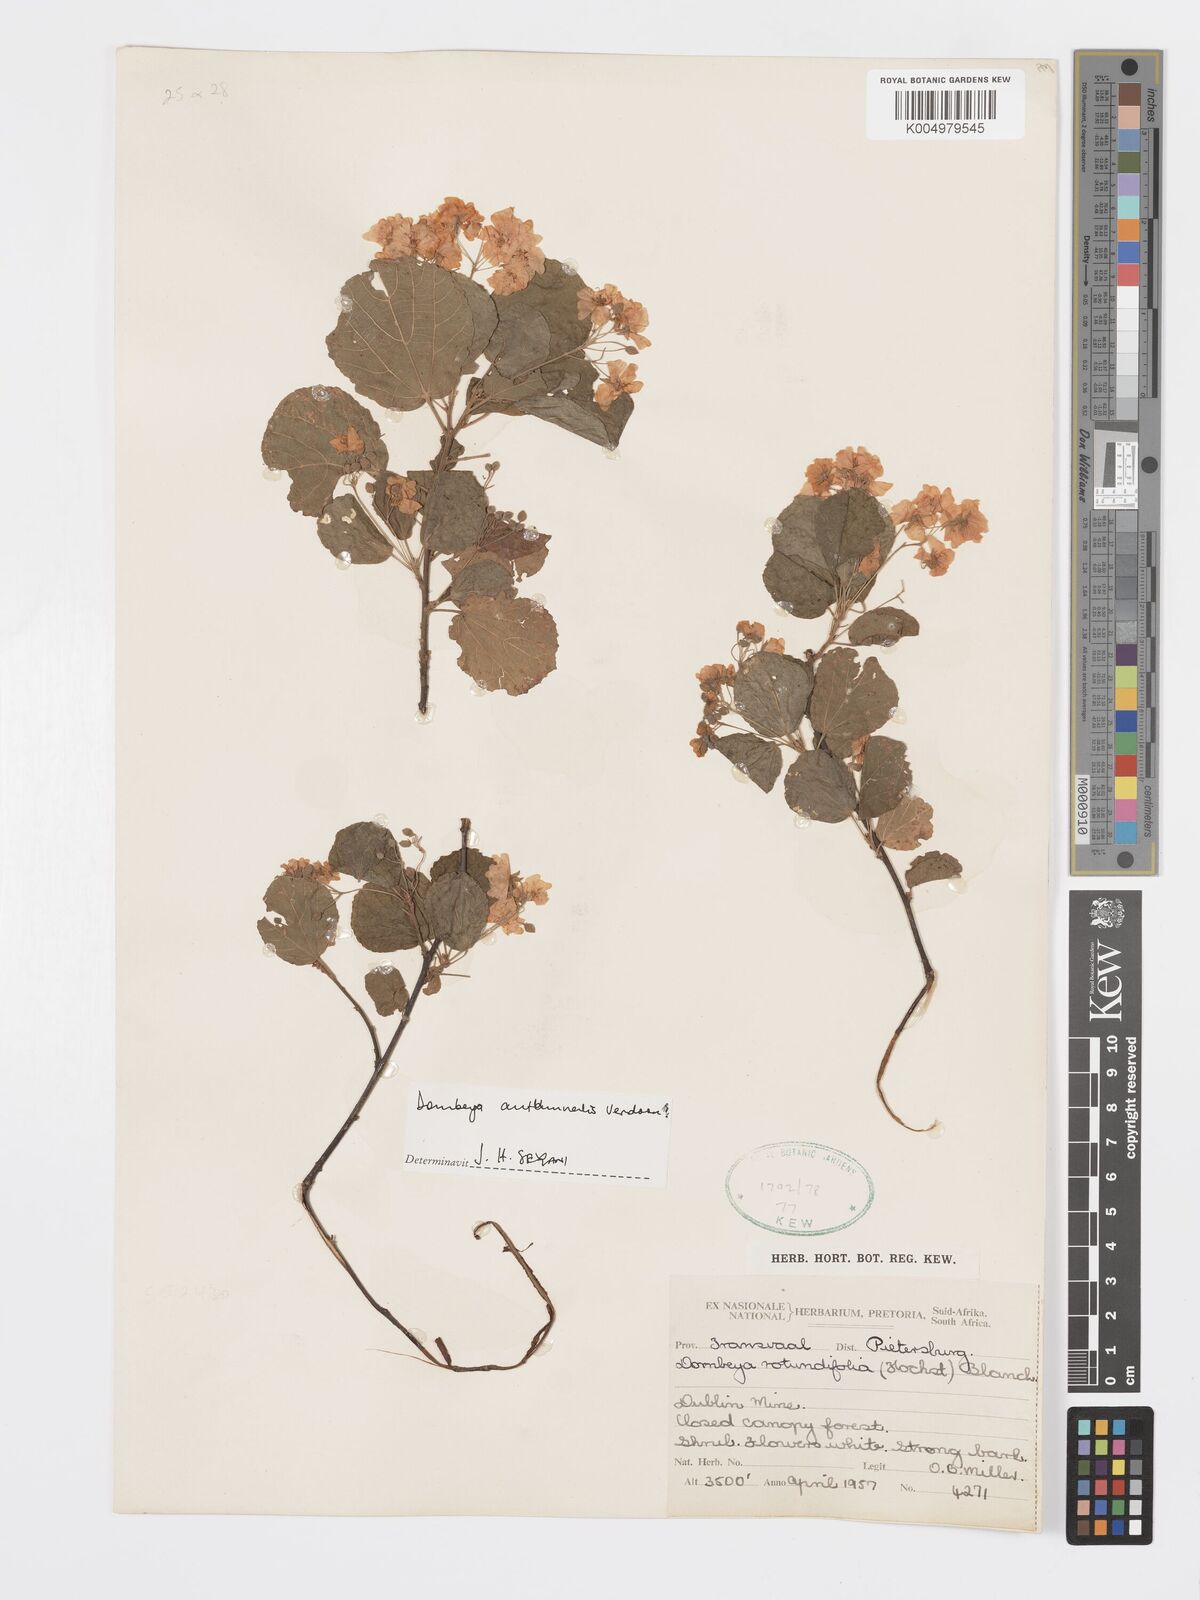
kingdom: Plantae
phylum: Tracheophyta
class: Magnoliopsida
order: Malvales
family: Malvaceae
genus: Dombeya
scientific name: Dombeya autumnalis
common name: Rock dombeya
